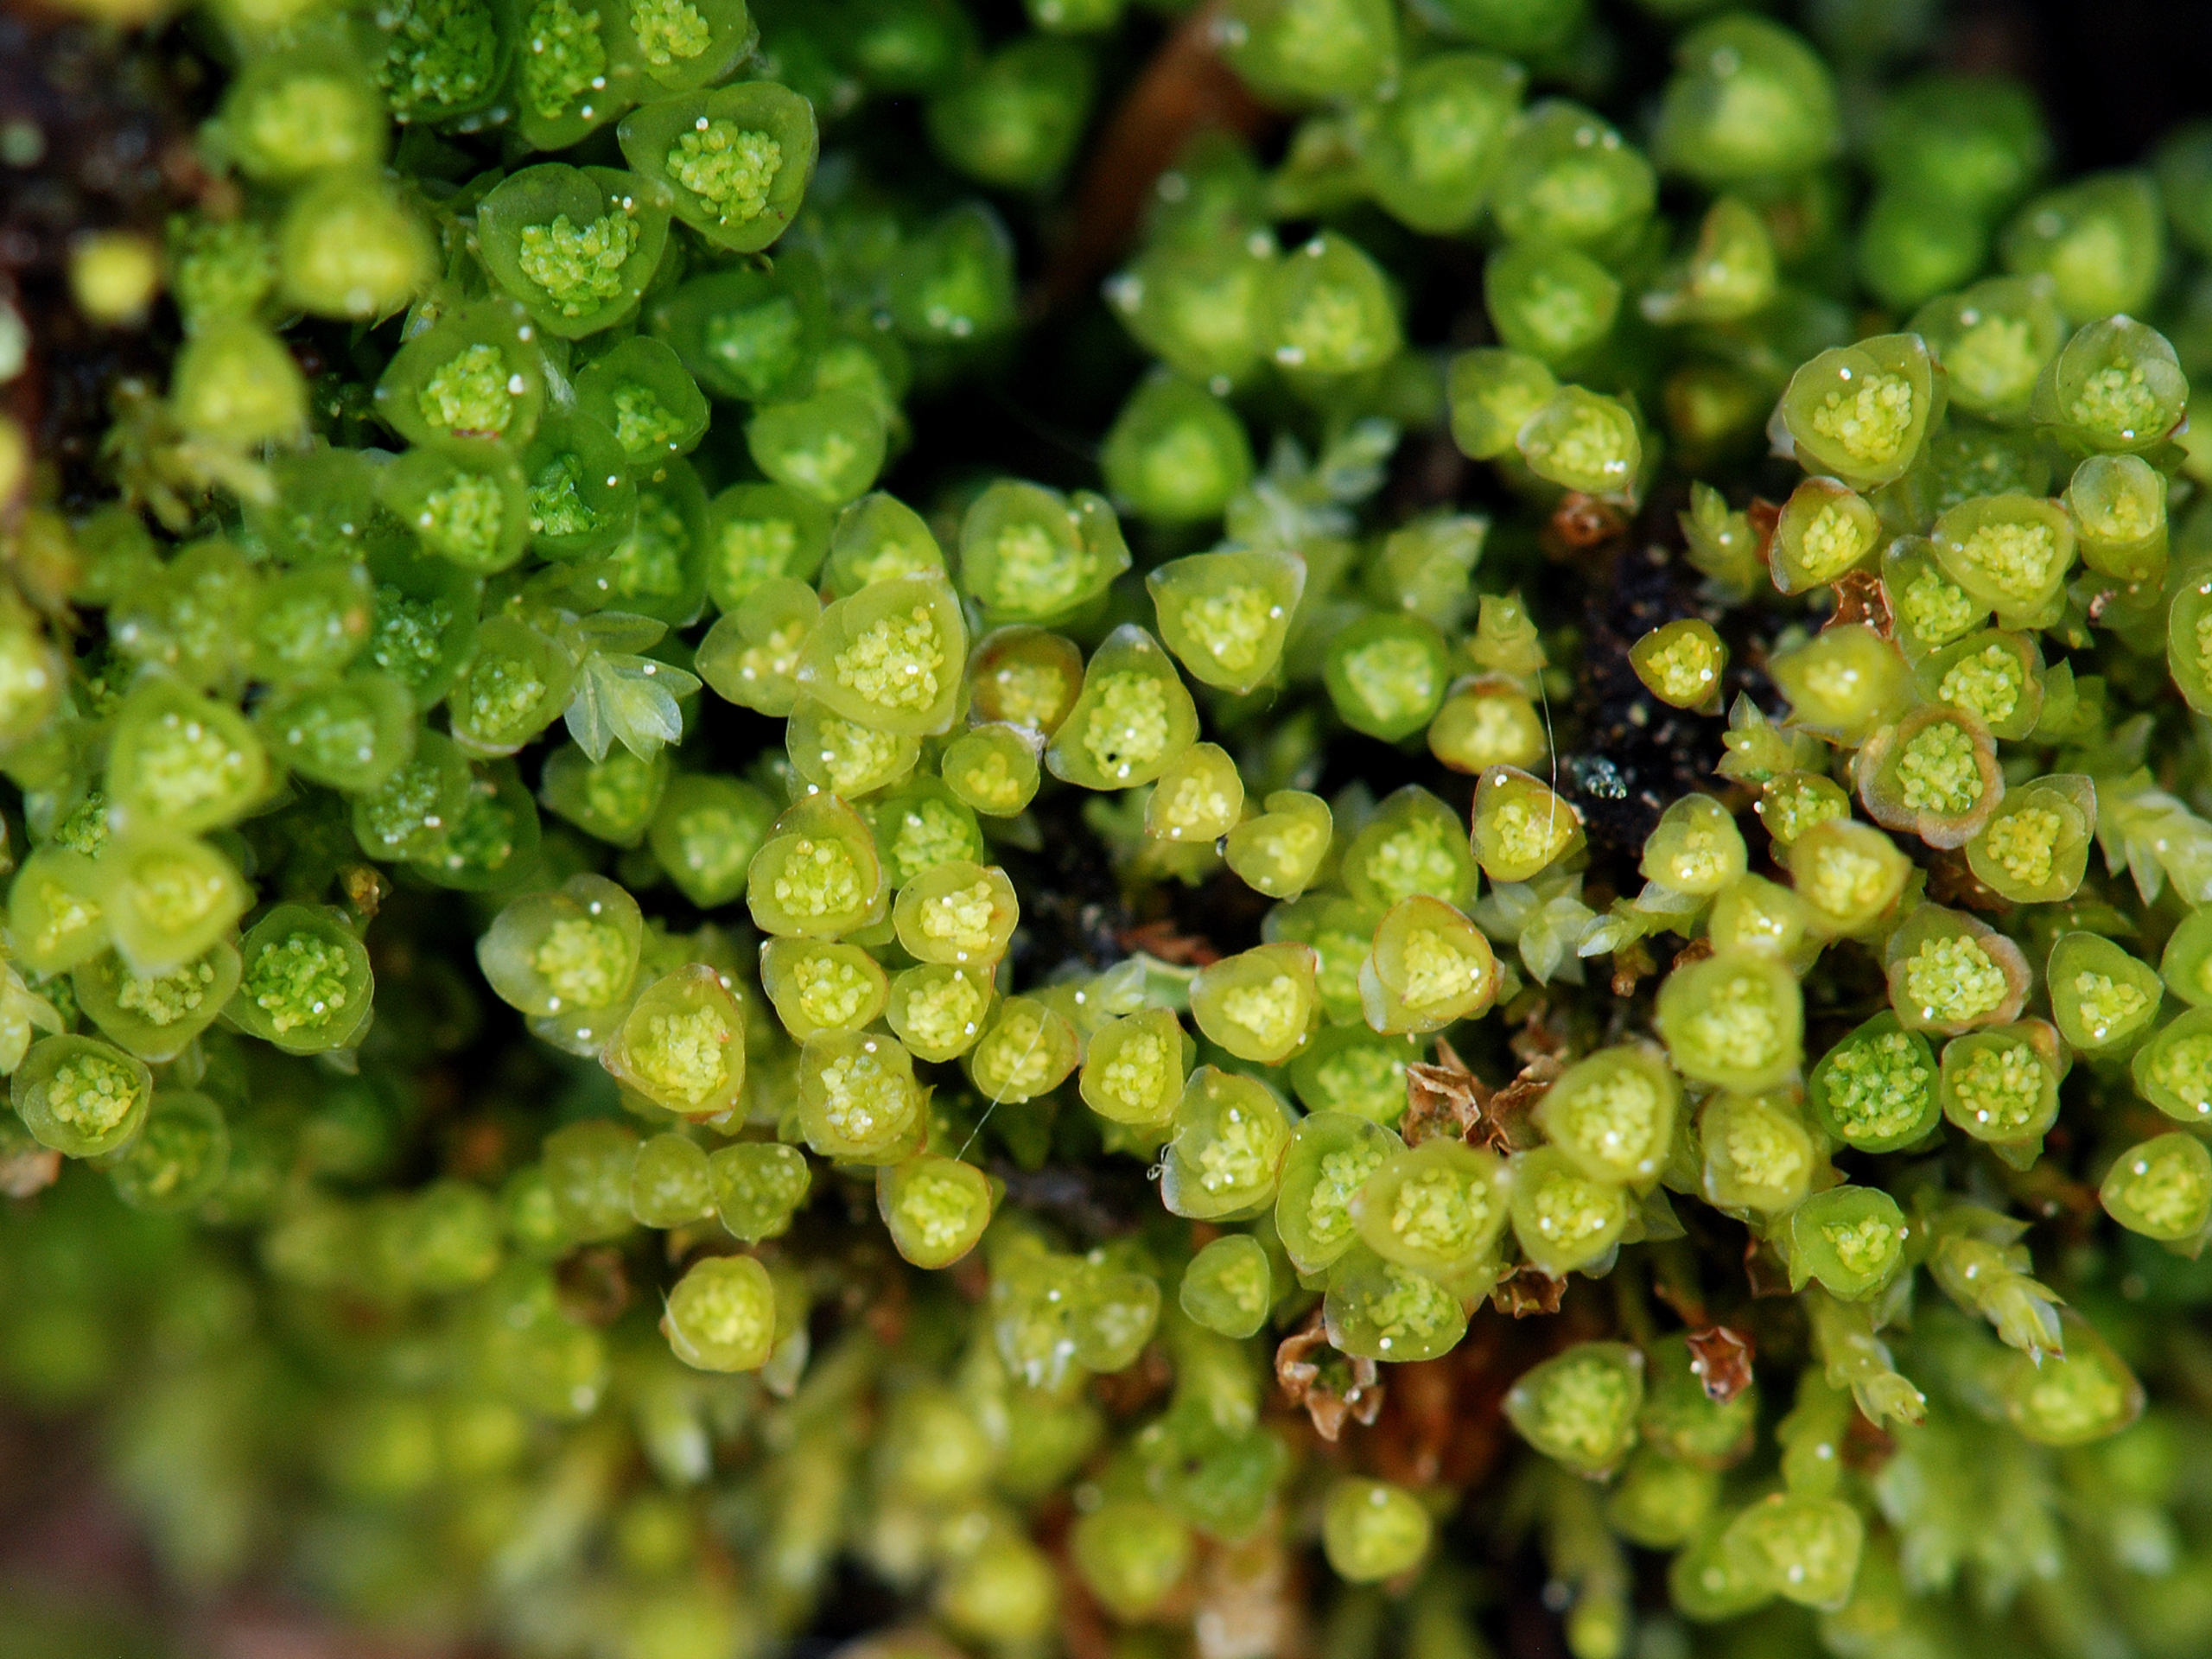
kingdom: Plantae
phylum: Bryophyta
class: Polytrichopsida
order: Tetraphidales
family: Tetraphidaceae
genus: Tetraphis
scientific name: Tetraphis pellucida
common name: Almindelig firtand
